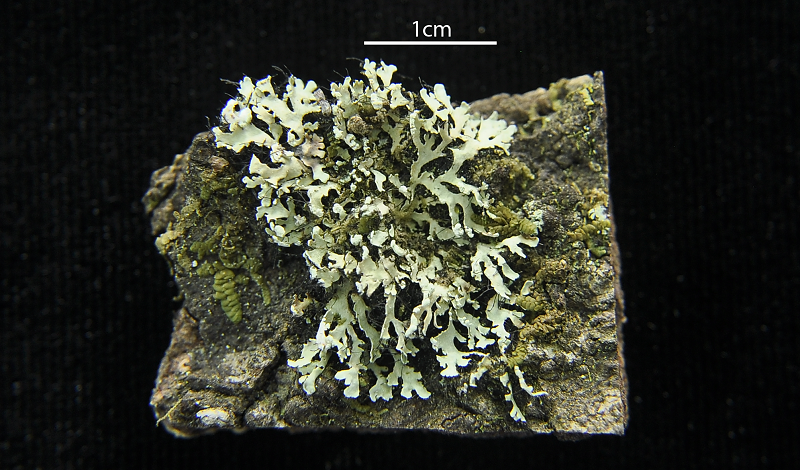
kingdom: Fungi
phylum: Ascomycota
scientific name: Ascomycota
